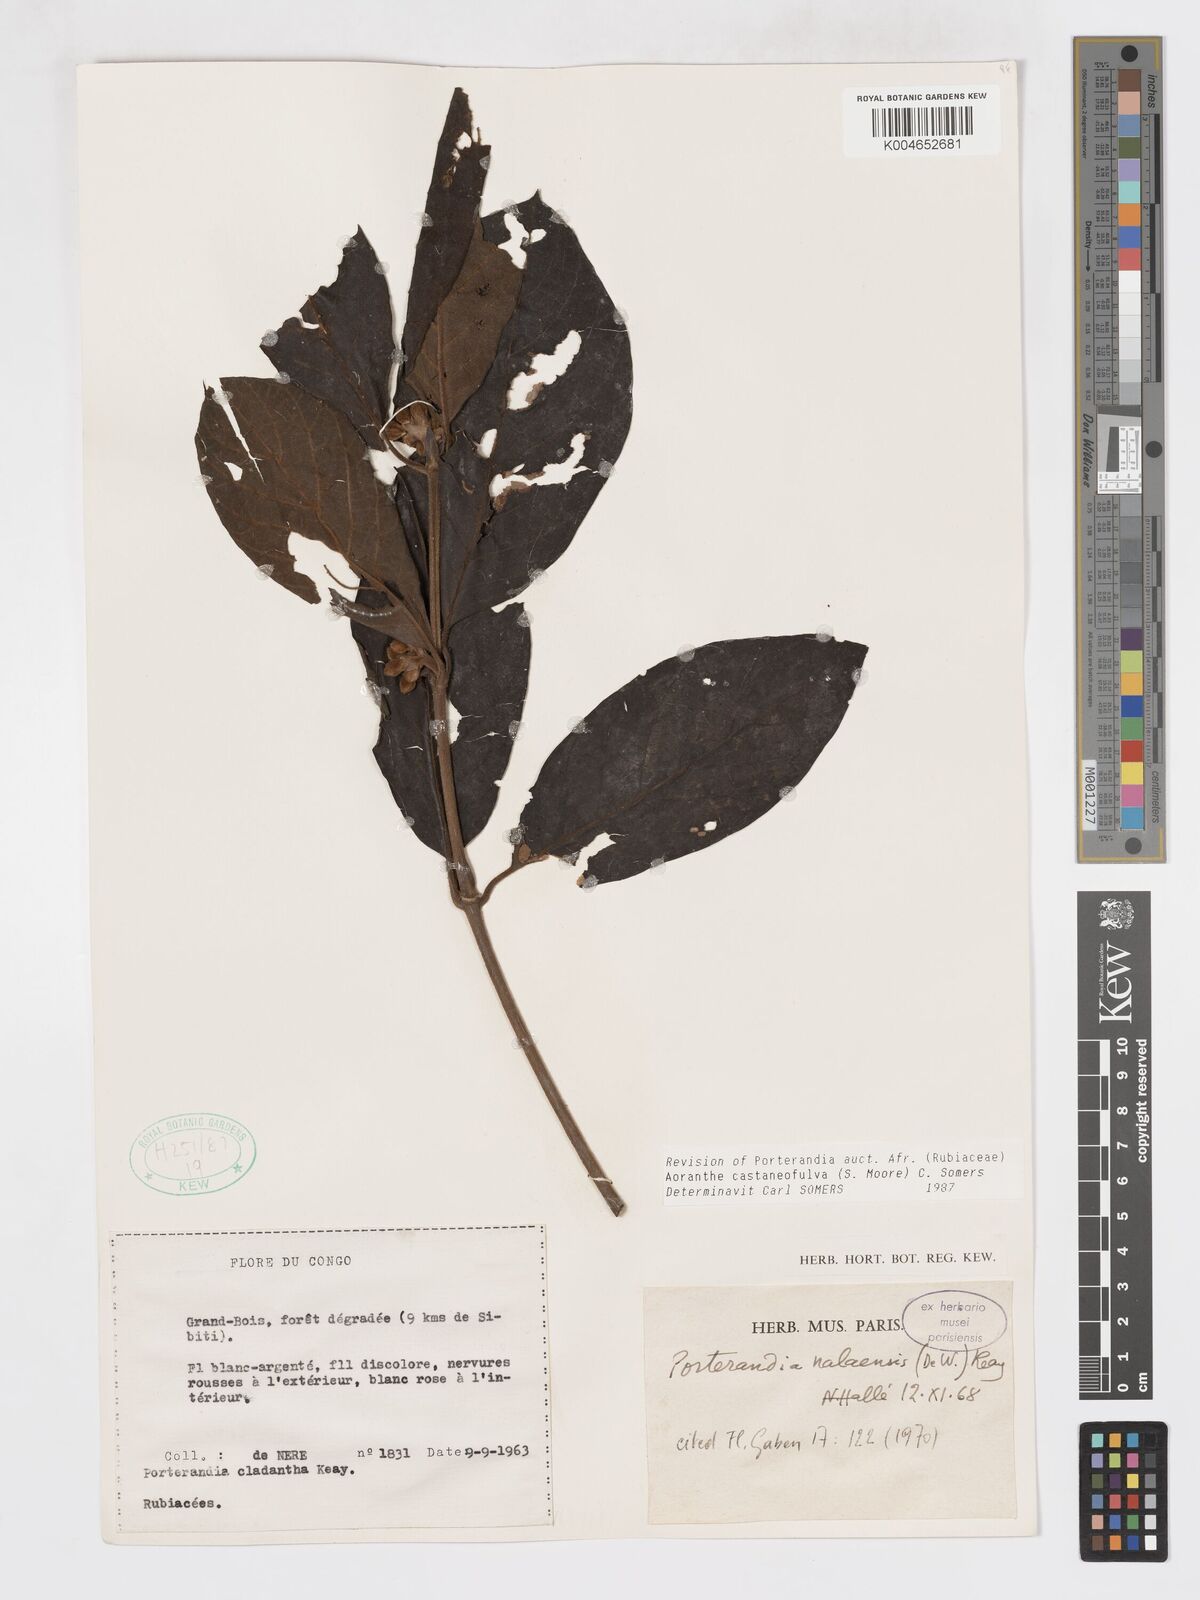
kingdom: Plantae
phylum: Tracheophyta
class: Magnoliopsida
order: Gentianales
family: Rubiaceae
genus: Aoranthe
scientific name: Aoranthe castaneofulva
